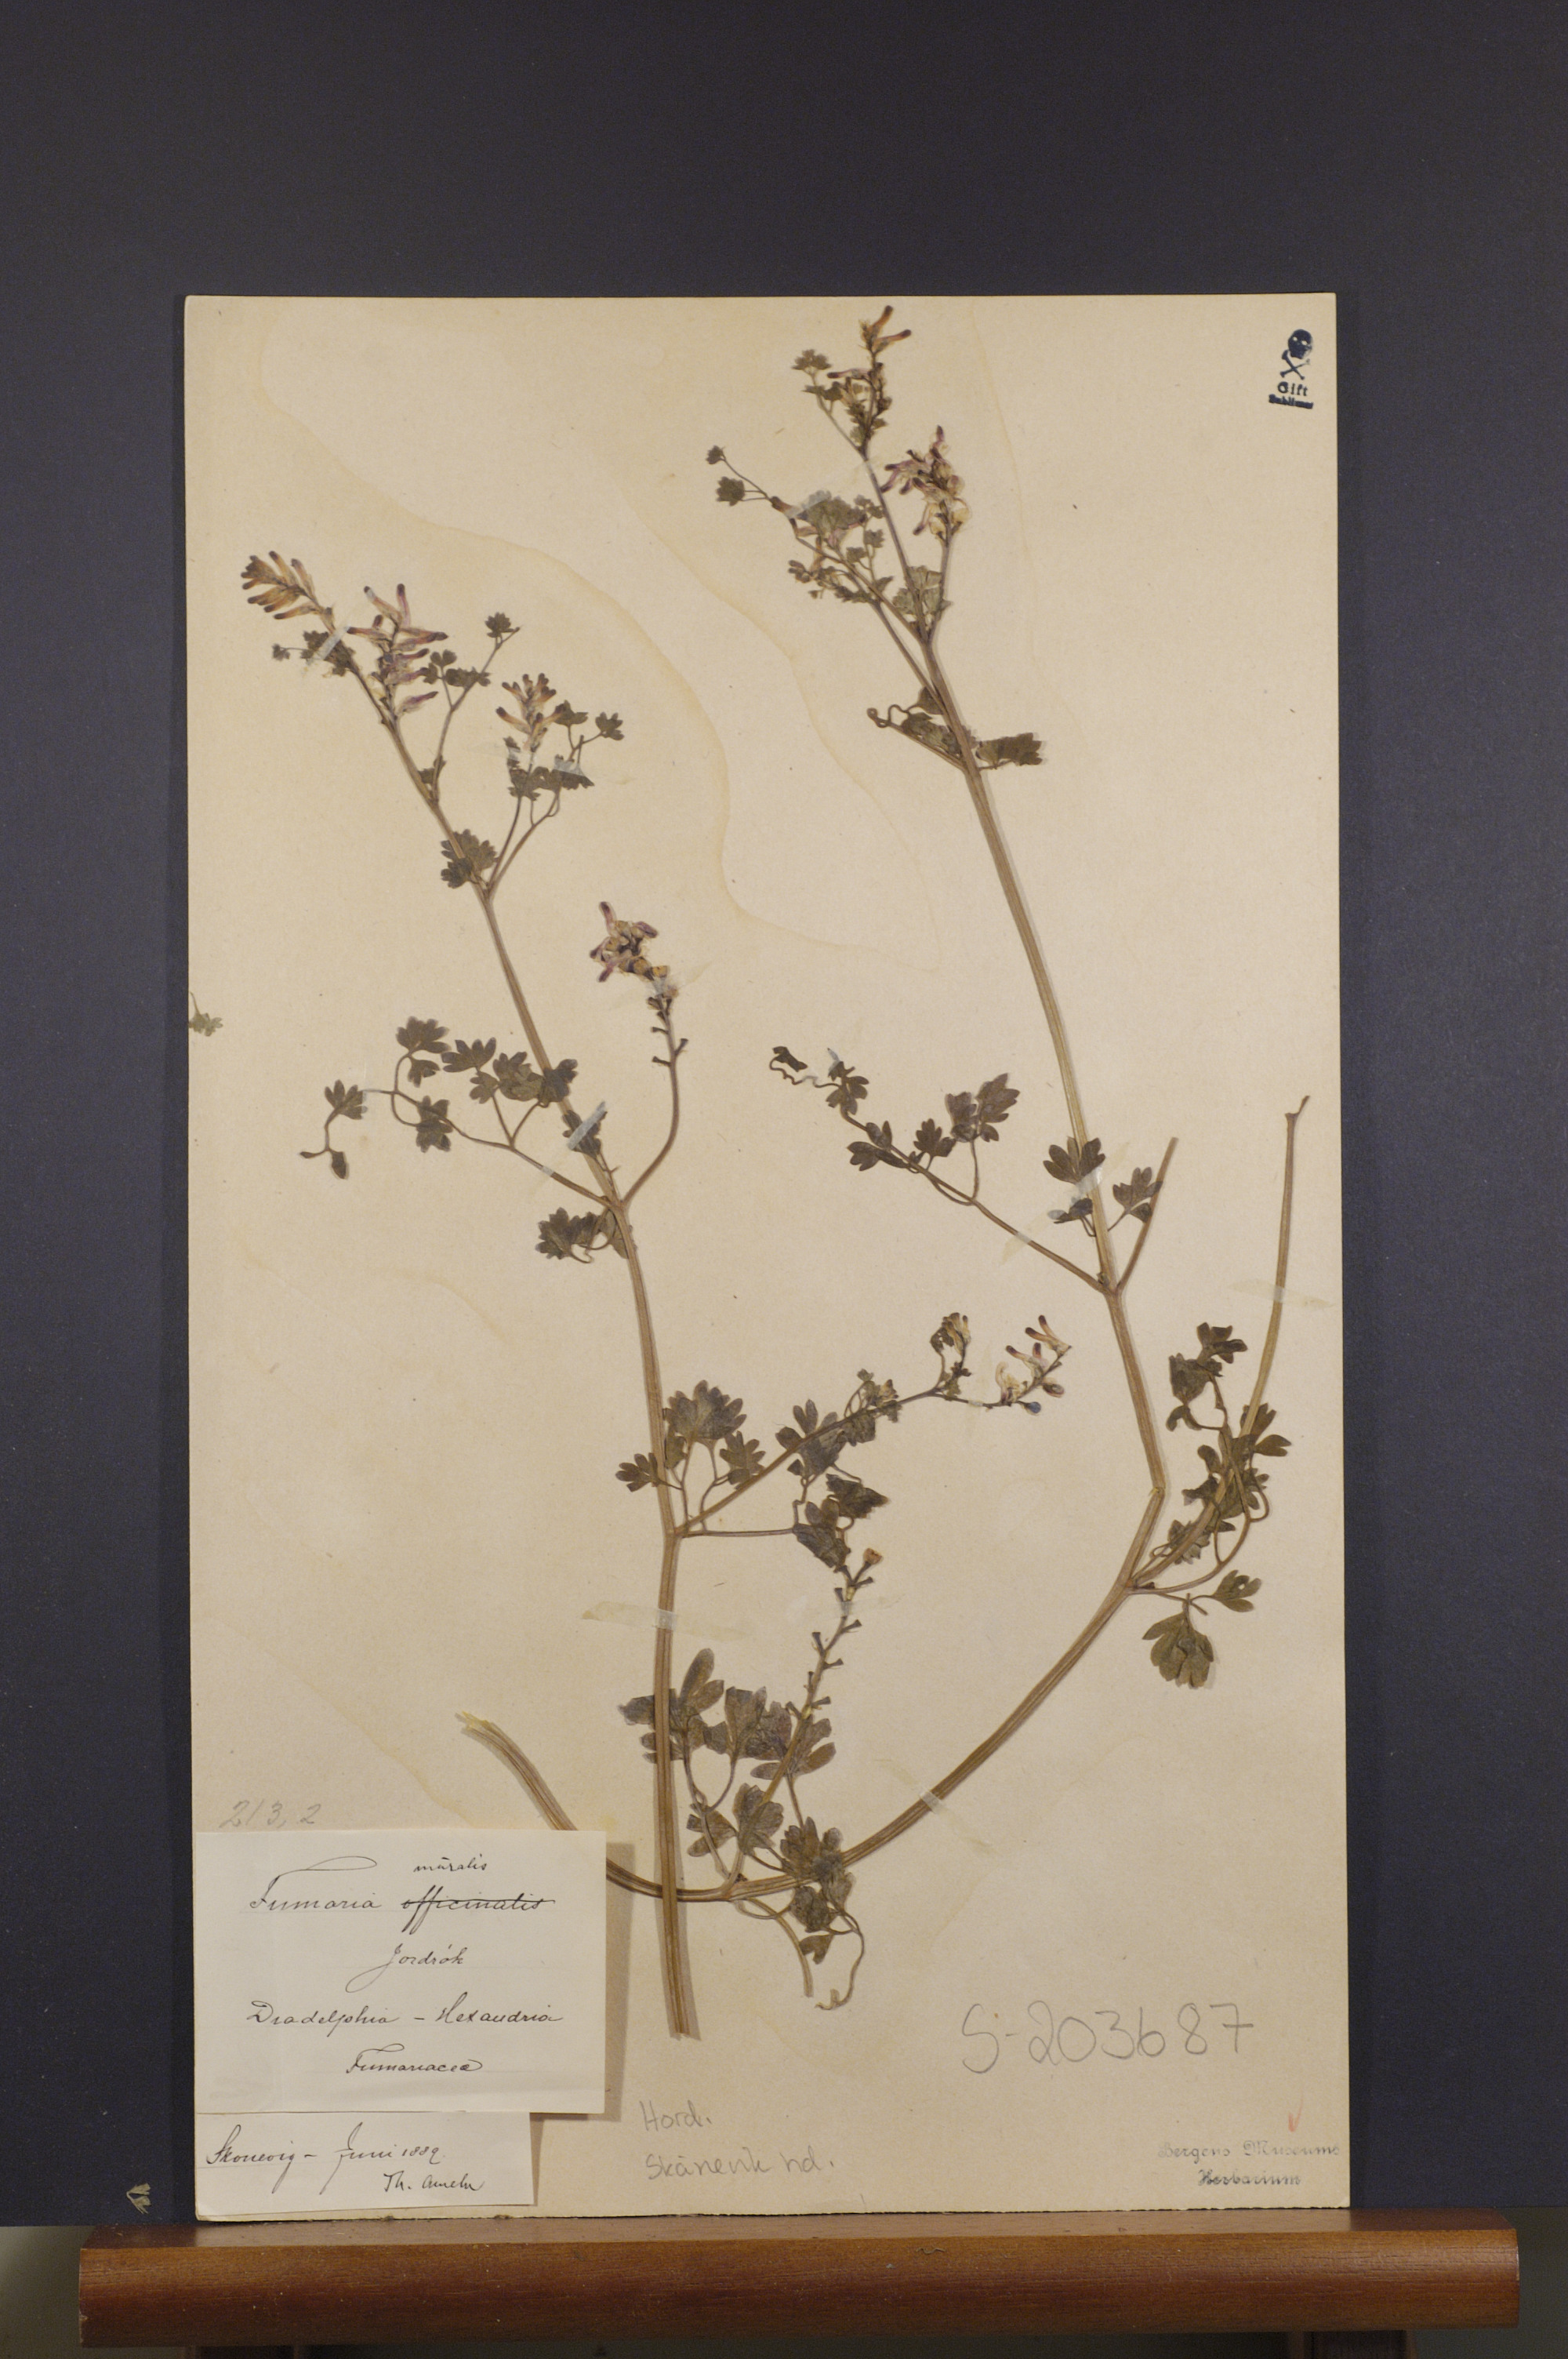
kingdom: Plantae
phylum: Tracheophyta
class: Magnoliopsida
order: Ranunculales
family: Papaveraceae
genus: Fumaria
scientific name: Fumaria muralis
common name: Common ramping-fumitory
